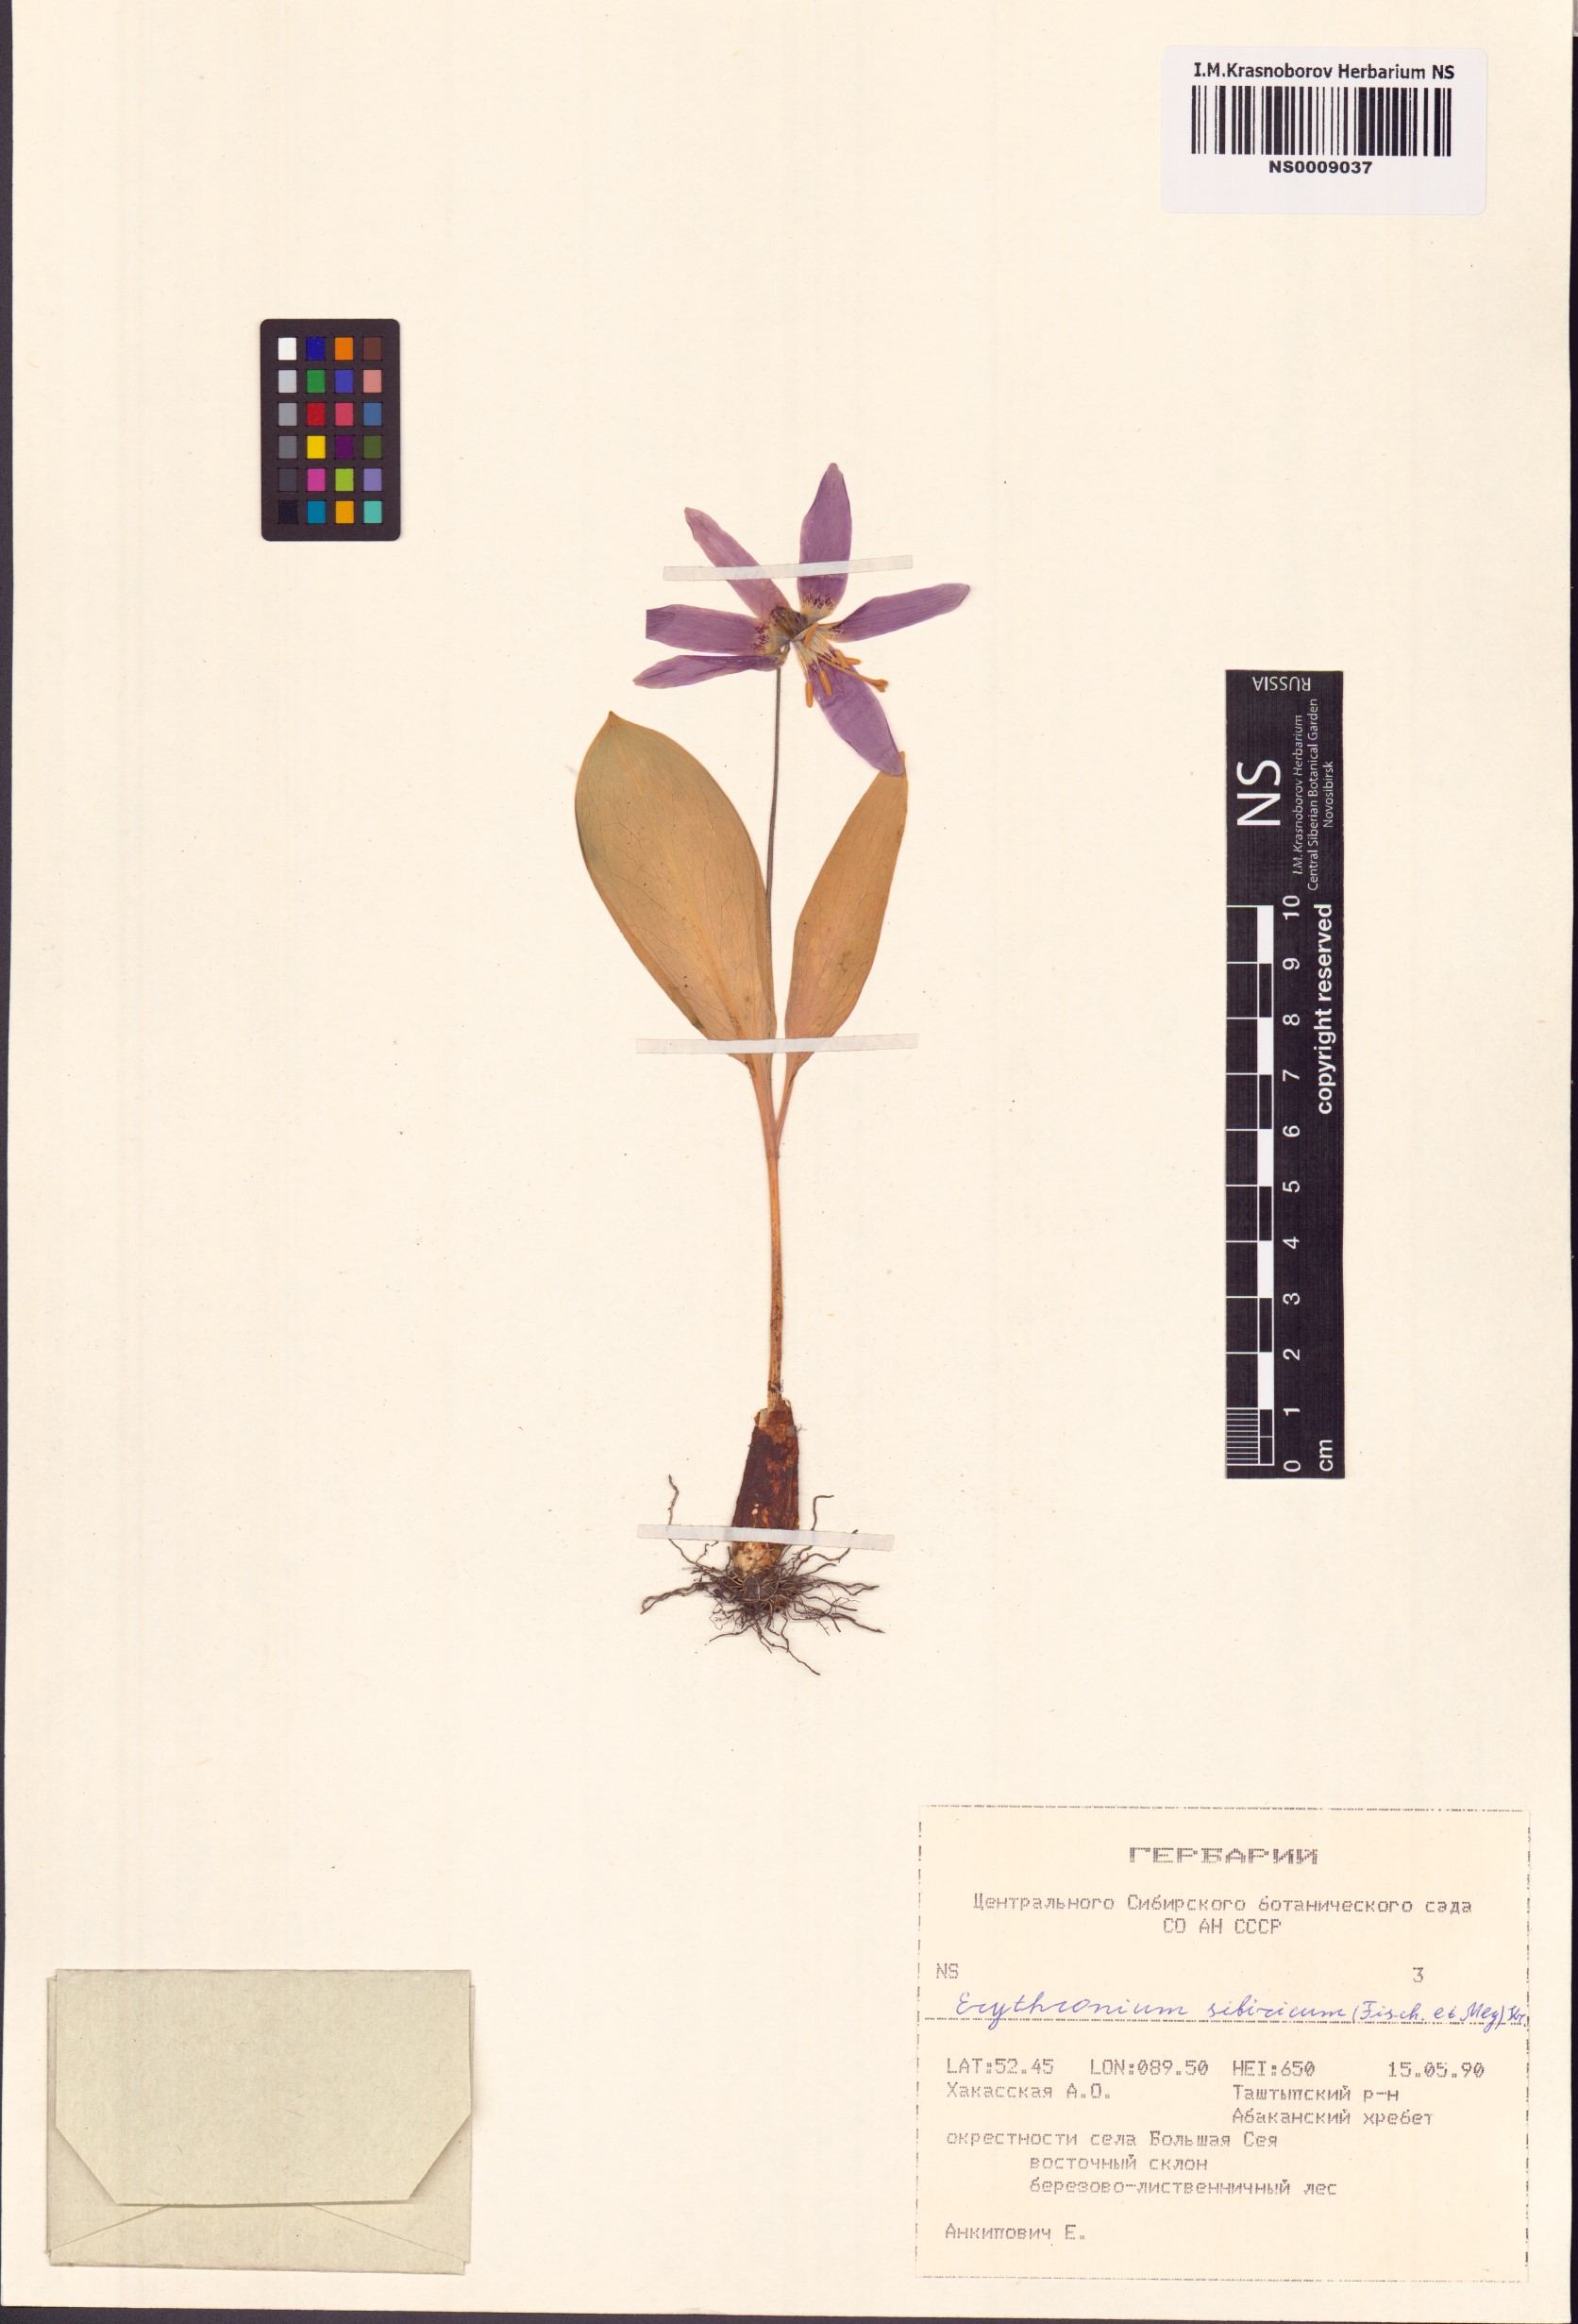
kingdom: Plantae
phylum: Tracheophyta
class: Liliopsida
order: Liliales
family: Liliaceae
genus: Erythronium
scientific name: Erythronium sibiricum
